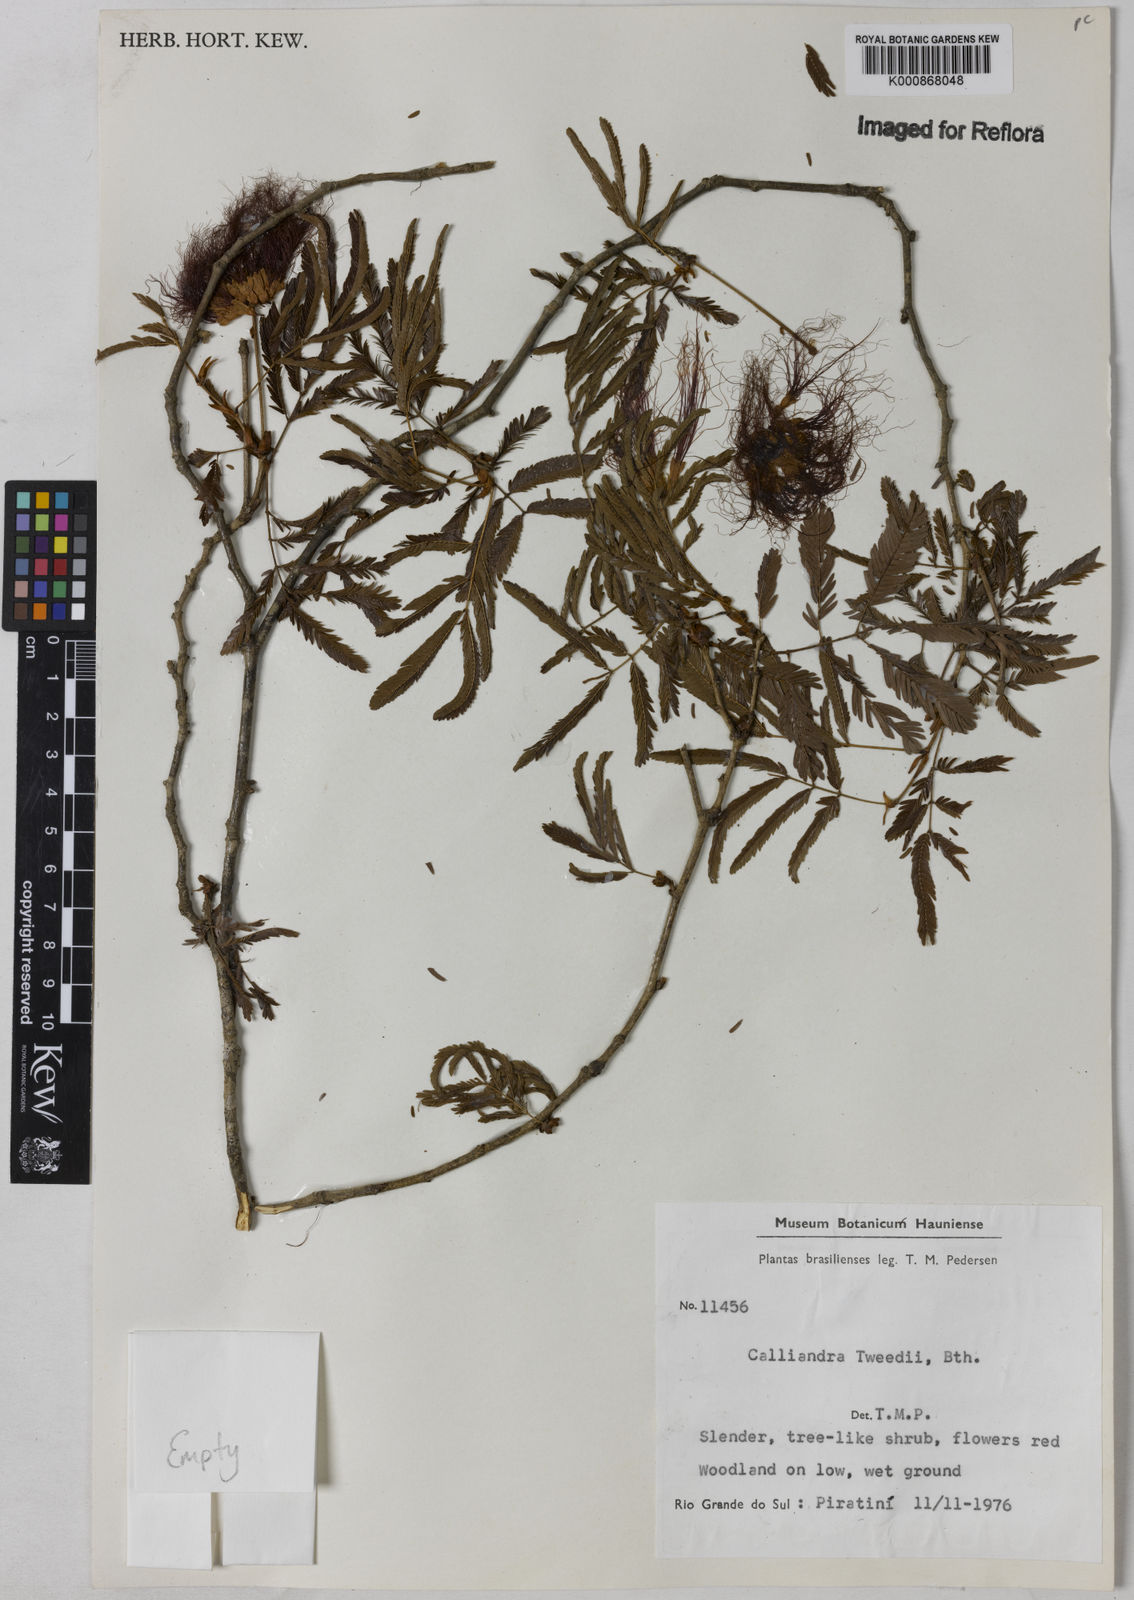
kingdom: Plantae
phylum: Tracheophyta
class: Magnoliopsida
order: Fabales
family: Fabaceae
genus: Calliandra
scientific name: Calliandra tweediei
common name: Mexican flamebush
